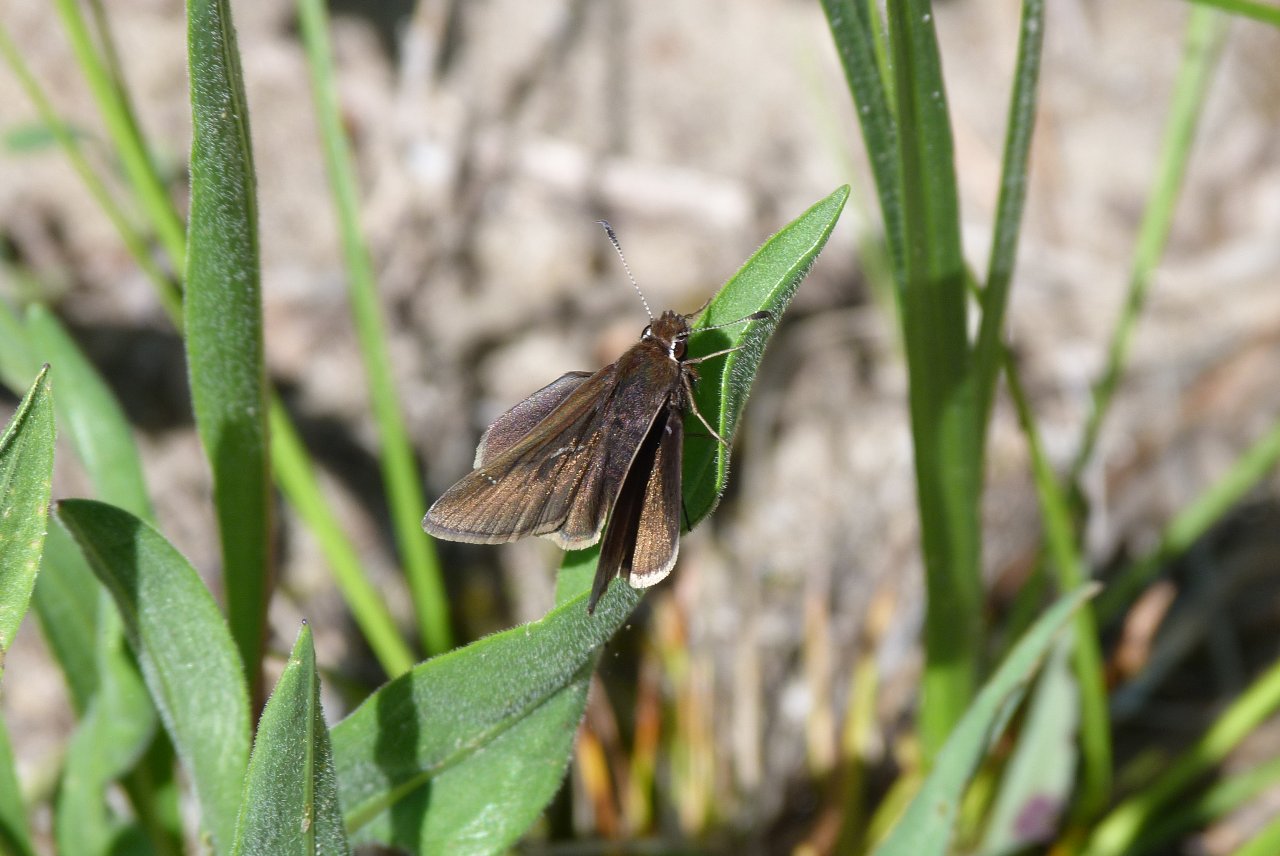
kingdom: Animalia
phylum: Arthropoda
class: Insecta
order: Lepidoptera
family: Hesperiidae
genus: Atrytonopsis
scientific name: Atrytonopsis hianna
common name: Dusted Skipper
